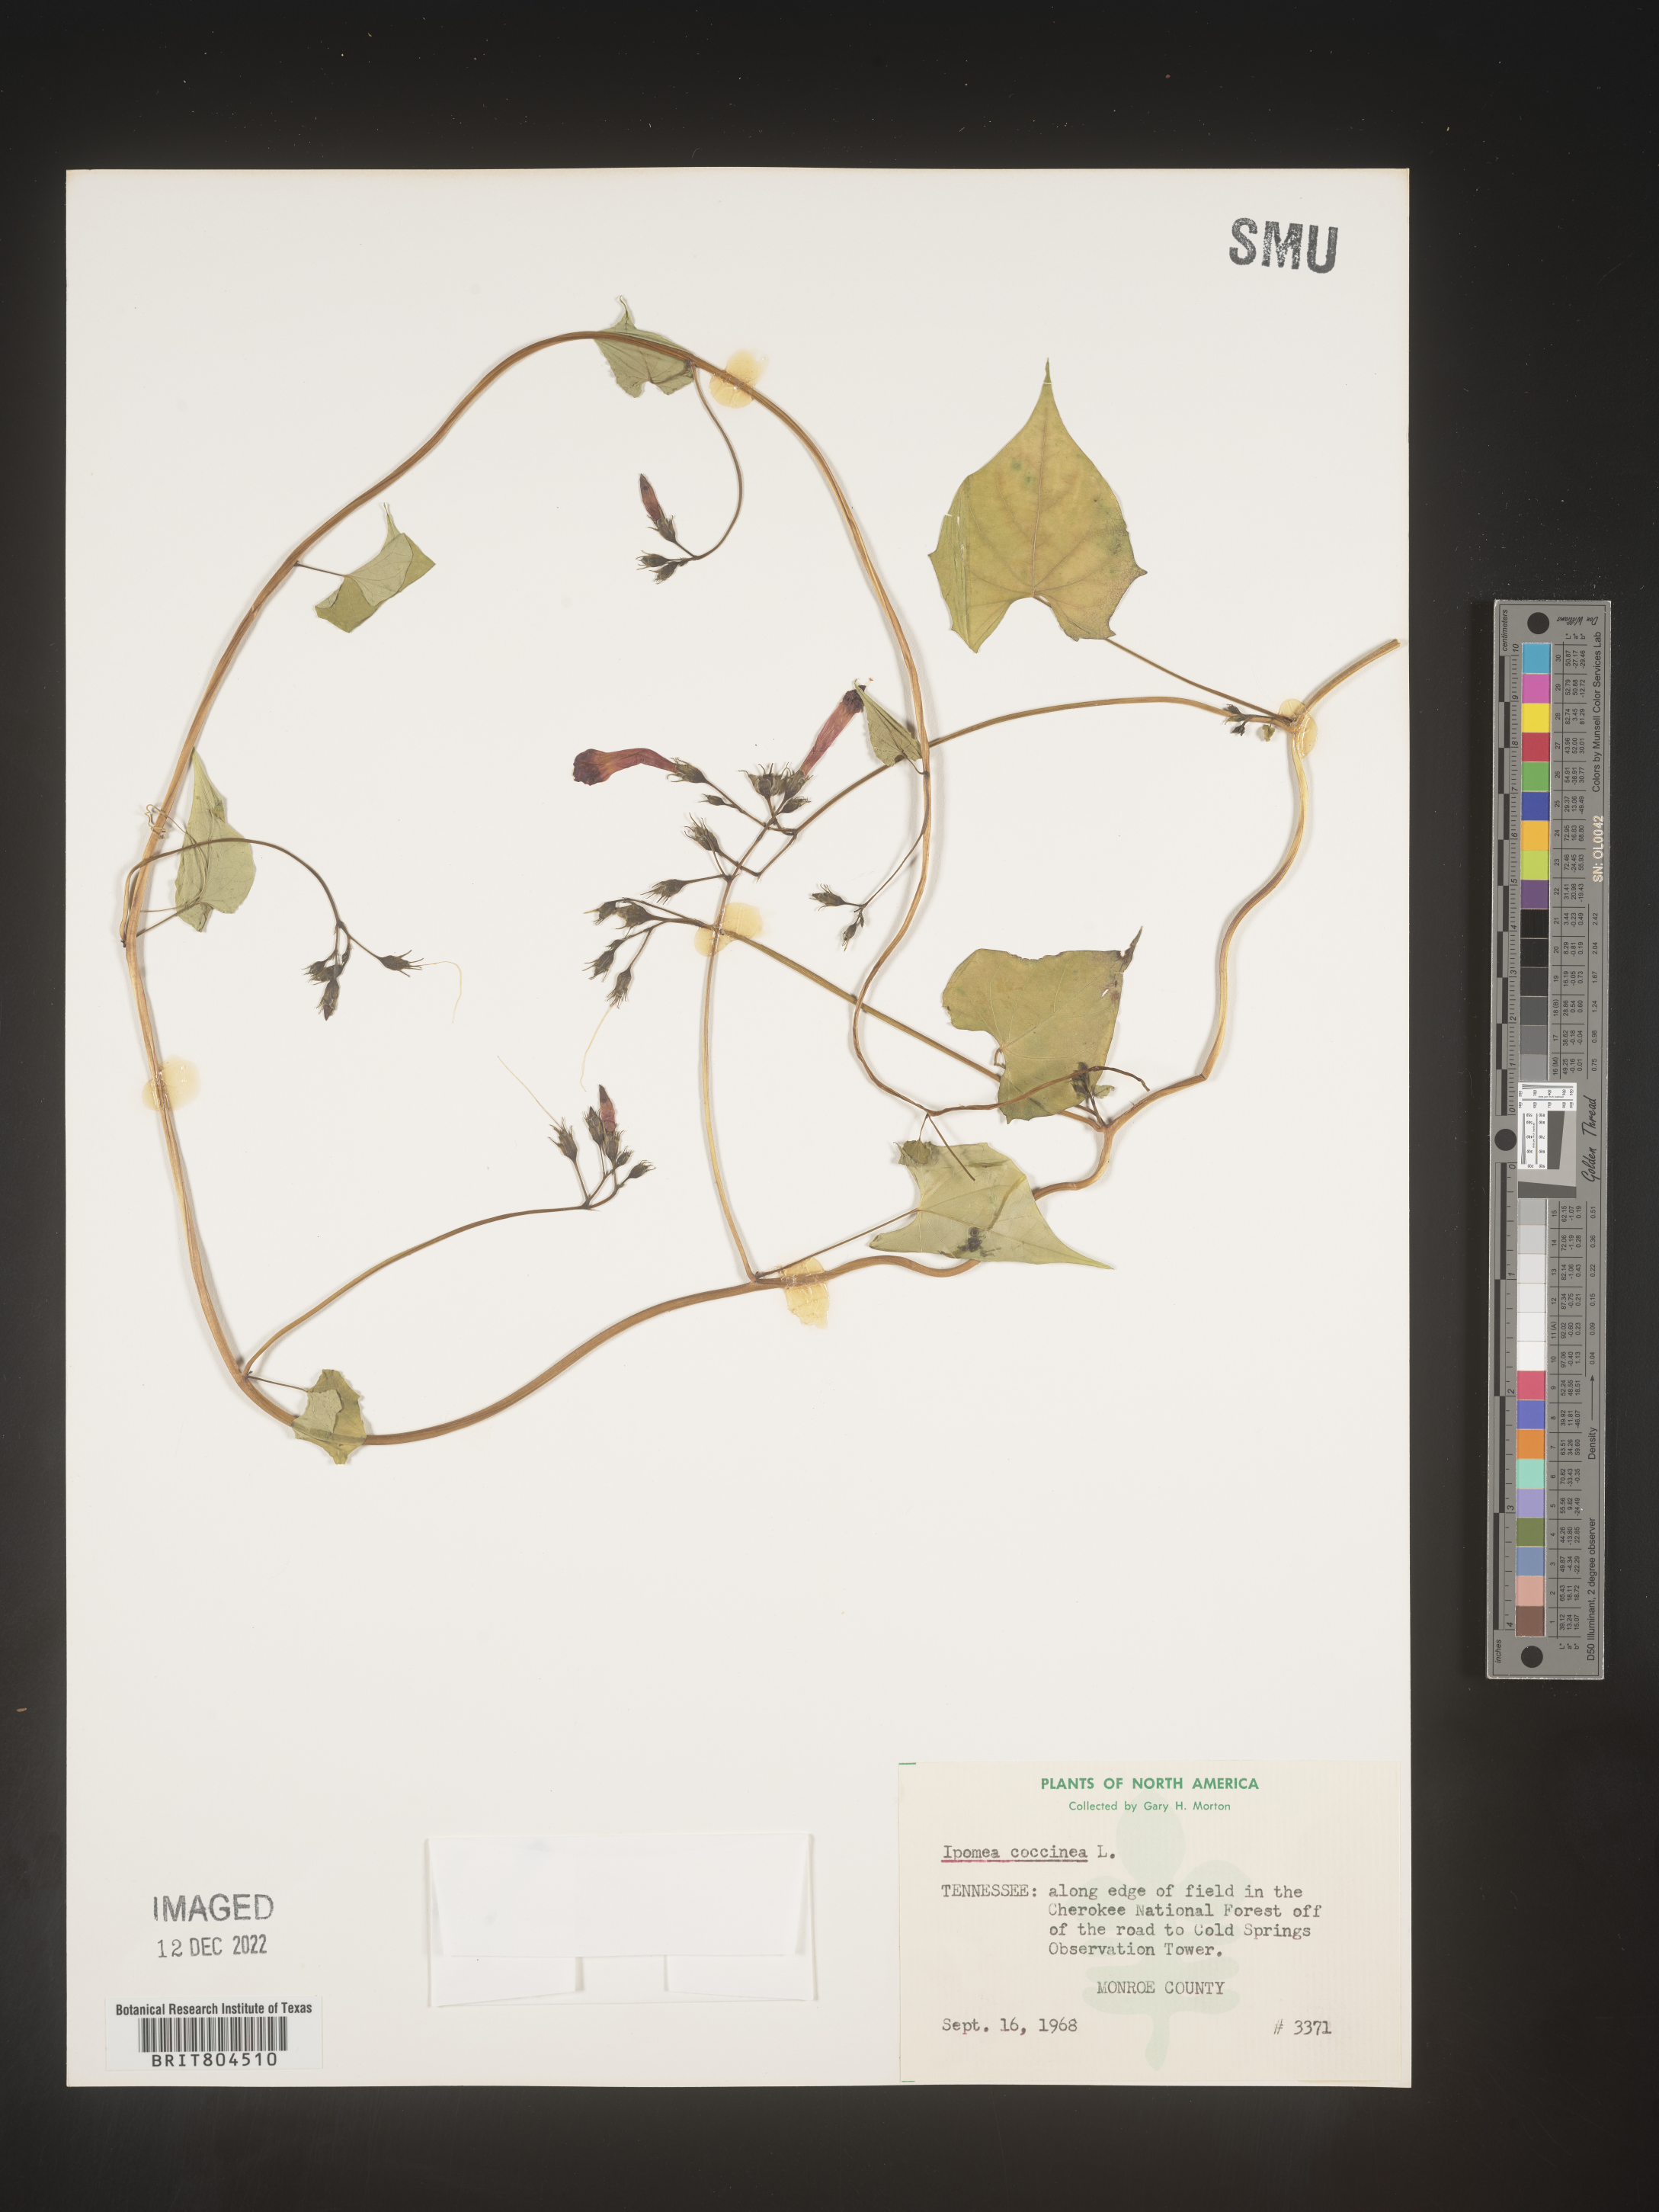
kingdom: Plantae
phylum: Tracheophyta
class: Magnoliopsida
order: Solanales
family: Convolvulaceae
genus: Ipomoea
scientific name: Ipomoea coccinea
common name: Red morning-glory
